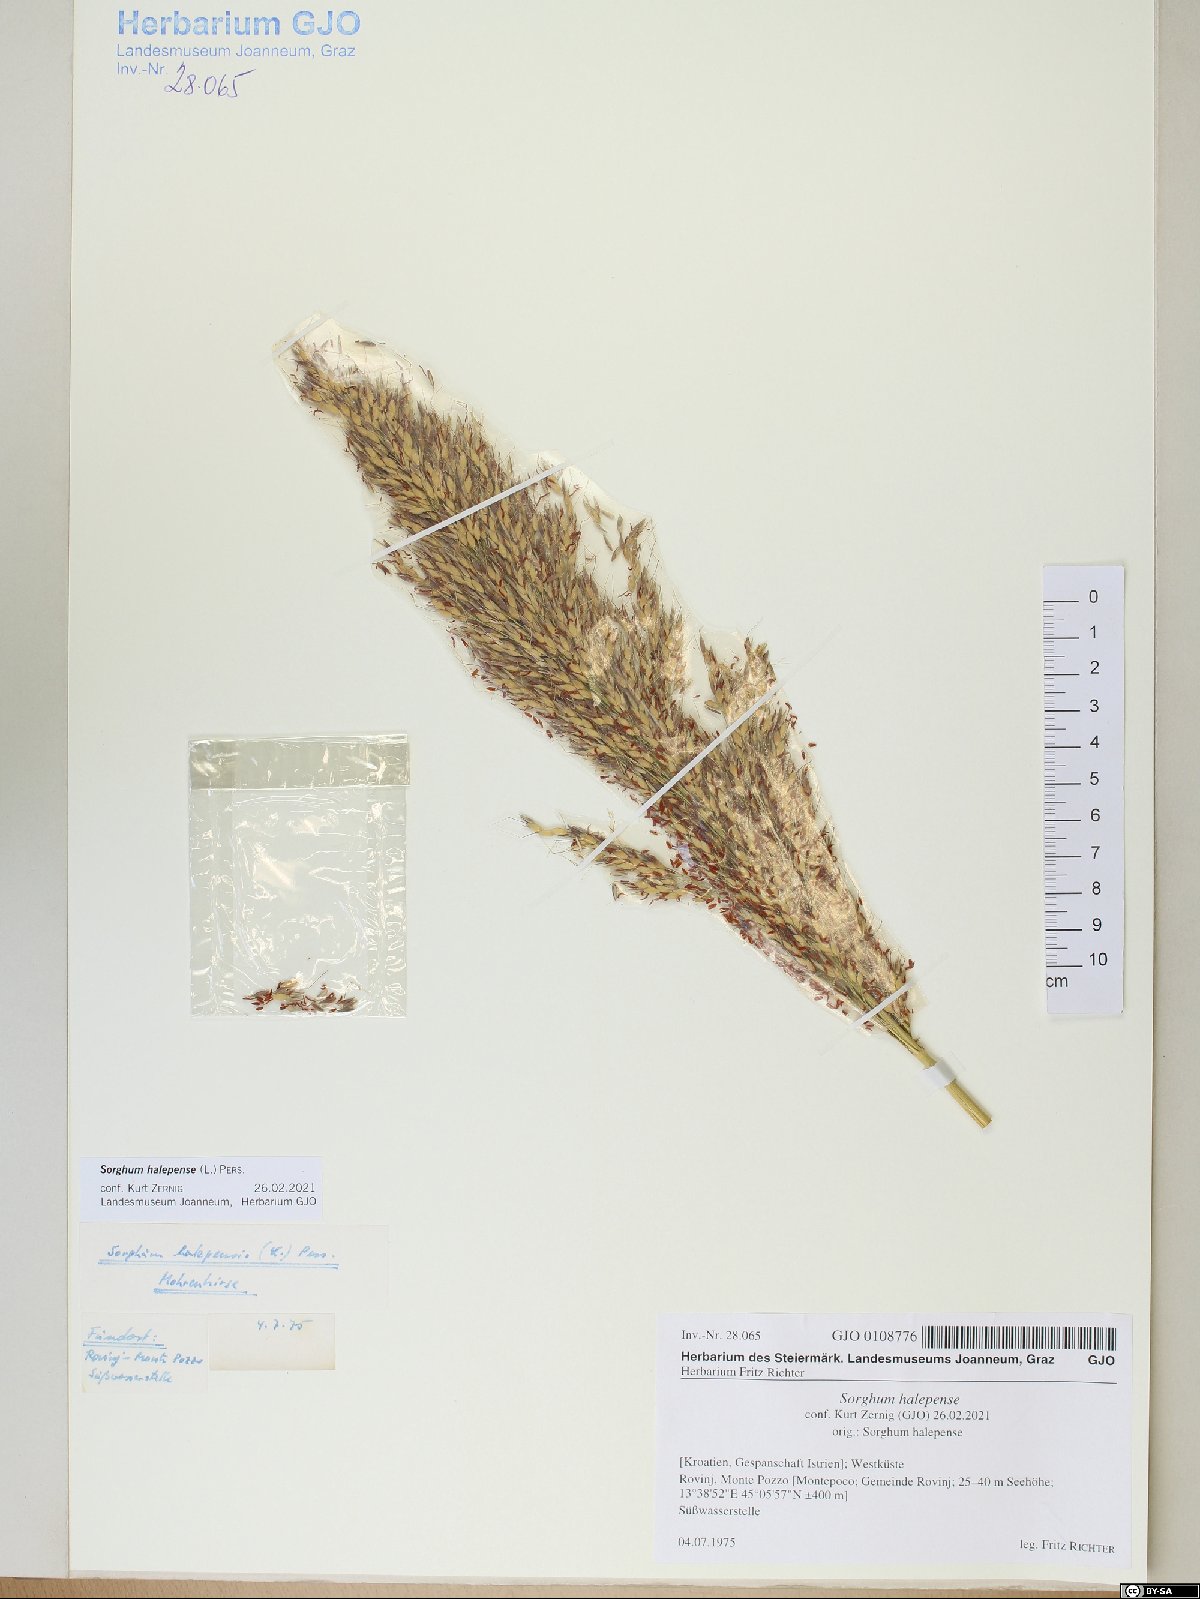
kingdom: Plantae
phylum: Tracheophyta
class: Liliopsida
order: Poales
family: Poaceae
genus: Sorghum
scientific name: Sorghum halepense
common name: Johnson-grass
